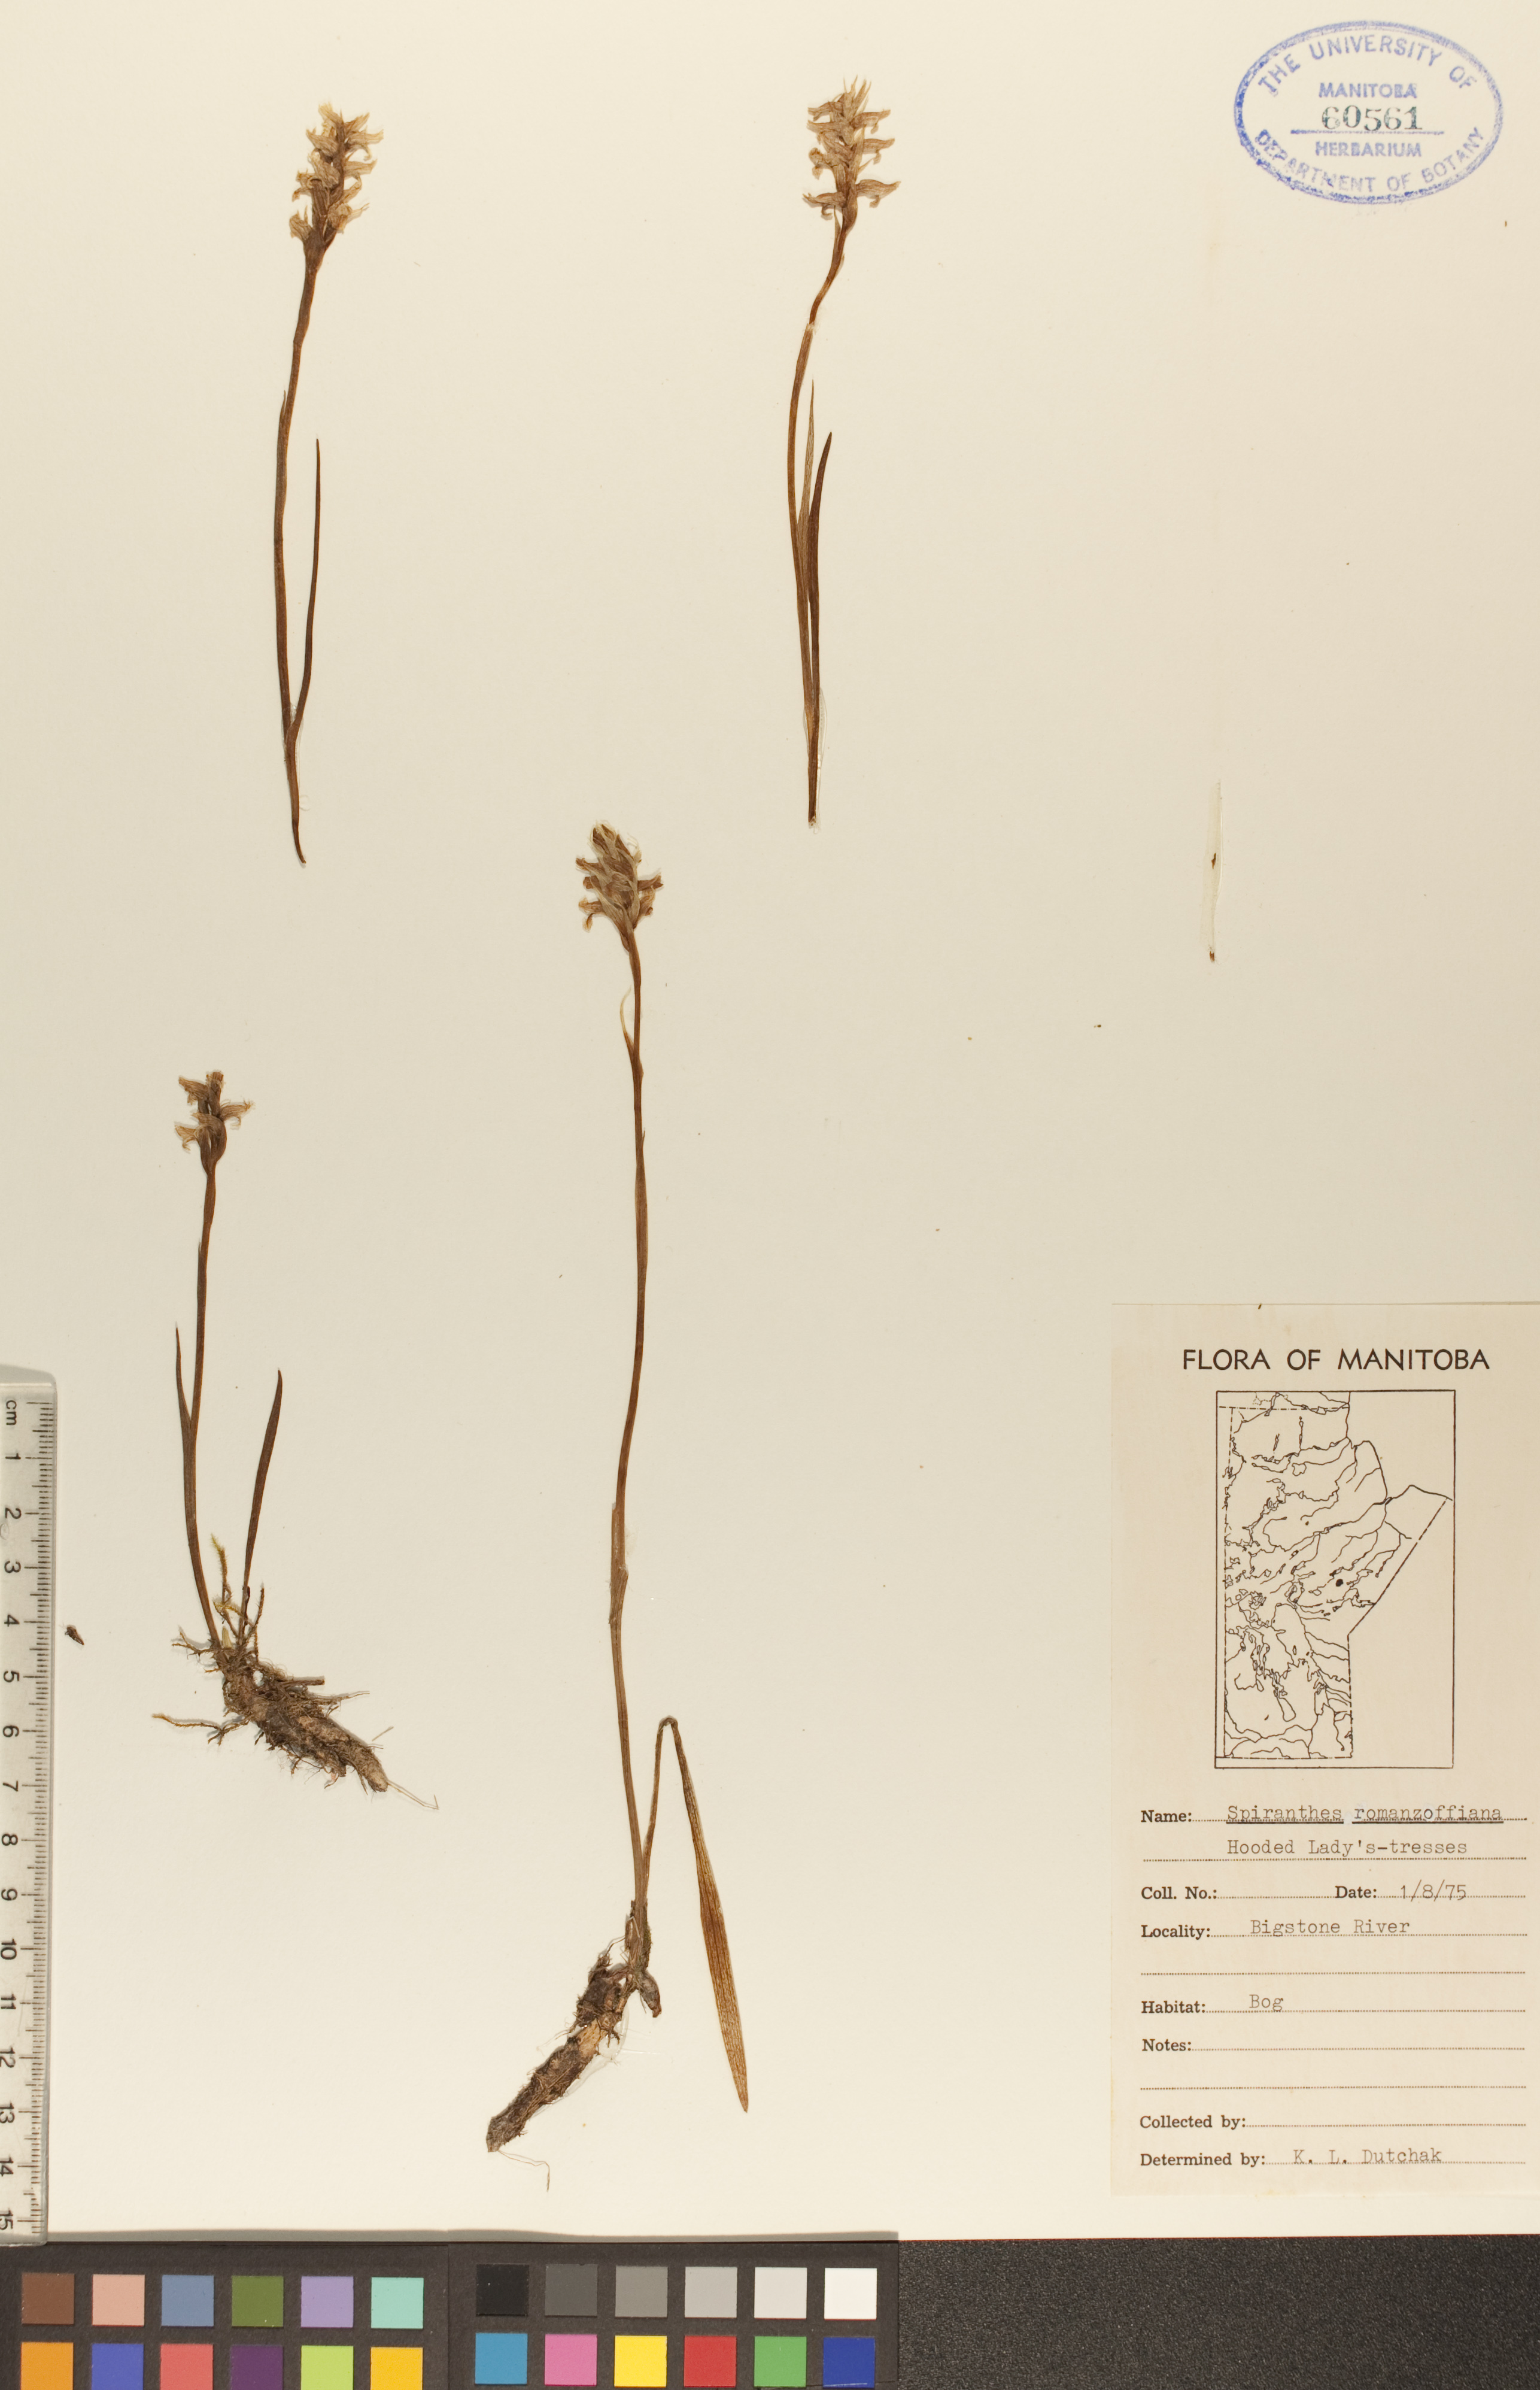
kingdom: Plantae
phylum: Tracheophyta
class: Liliopsida
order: Asparagales
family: Orchidaceae
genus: Spiranthes
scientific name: Spiranthes romanzoffiana
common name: Irish lady's-tresses
